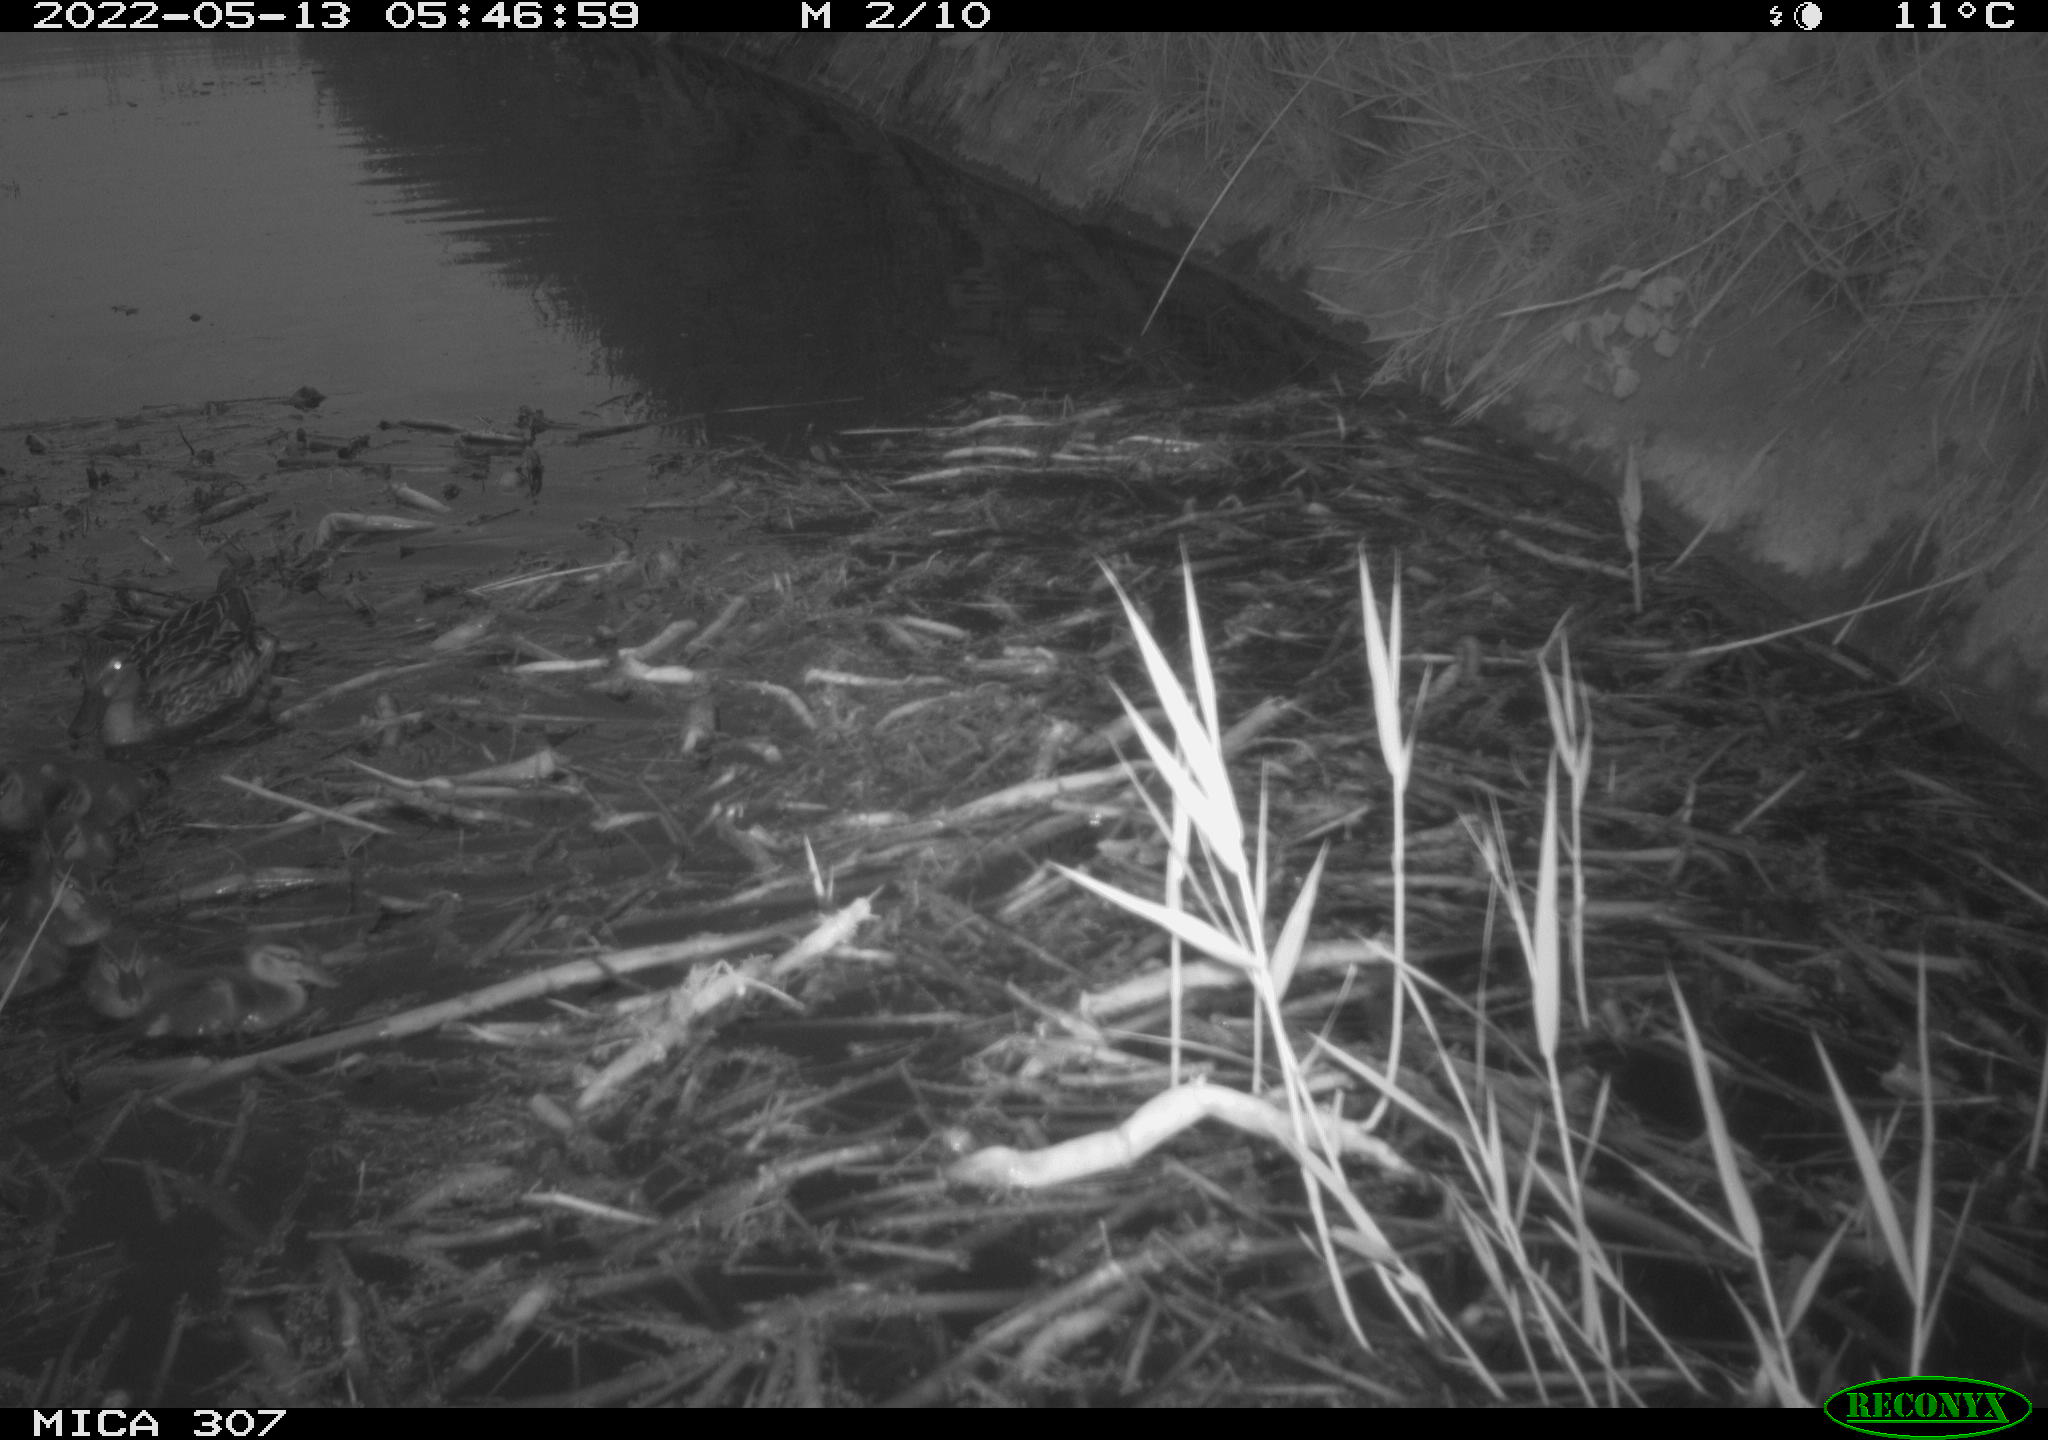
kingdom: Animalia
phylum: Chordata
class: Aves
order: Anseriformes
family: Anatidae
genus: Anas
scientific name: Anas platyrhynchos
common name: Mallard
